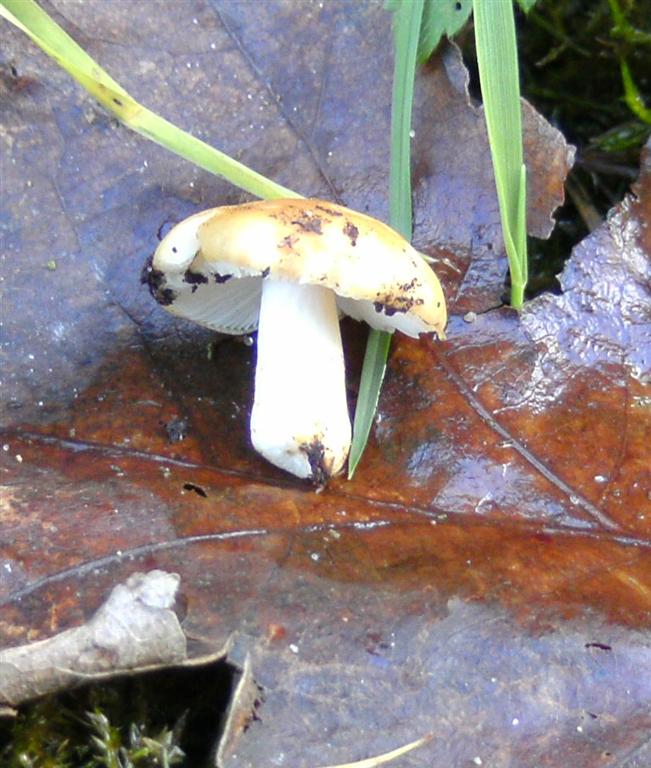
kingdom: Fungi
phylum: Basidiomycota
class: Agaricomycetes
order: Russulales
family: Russulaceae
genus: Russula
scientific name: Russula ochroleuca
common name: okkergul skørhat
